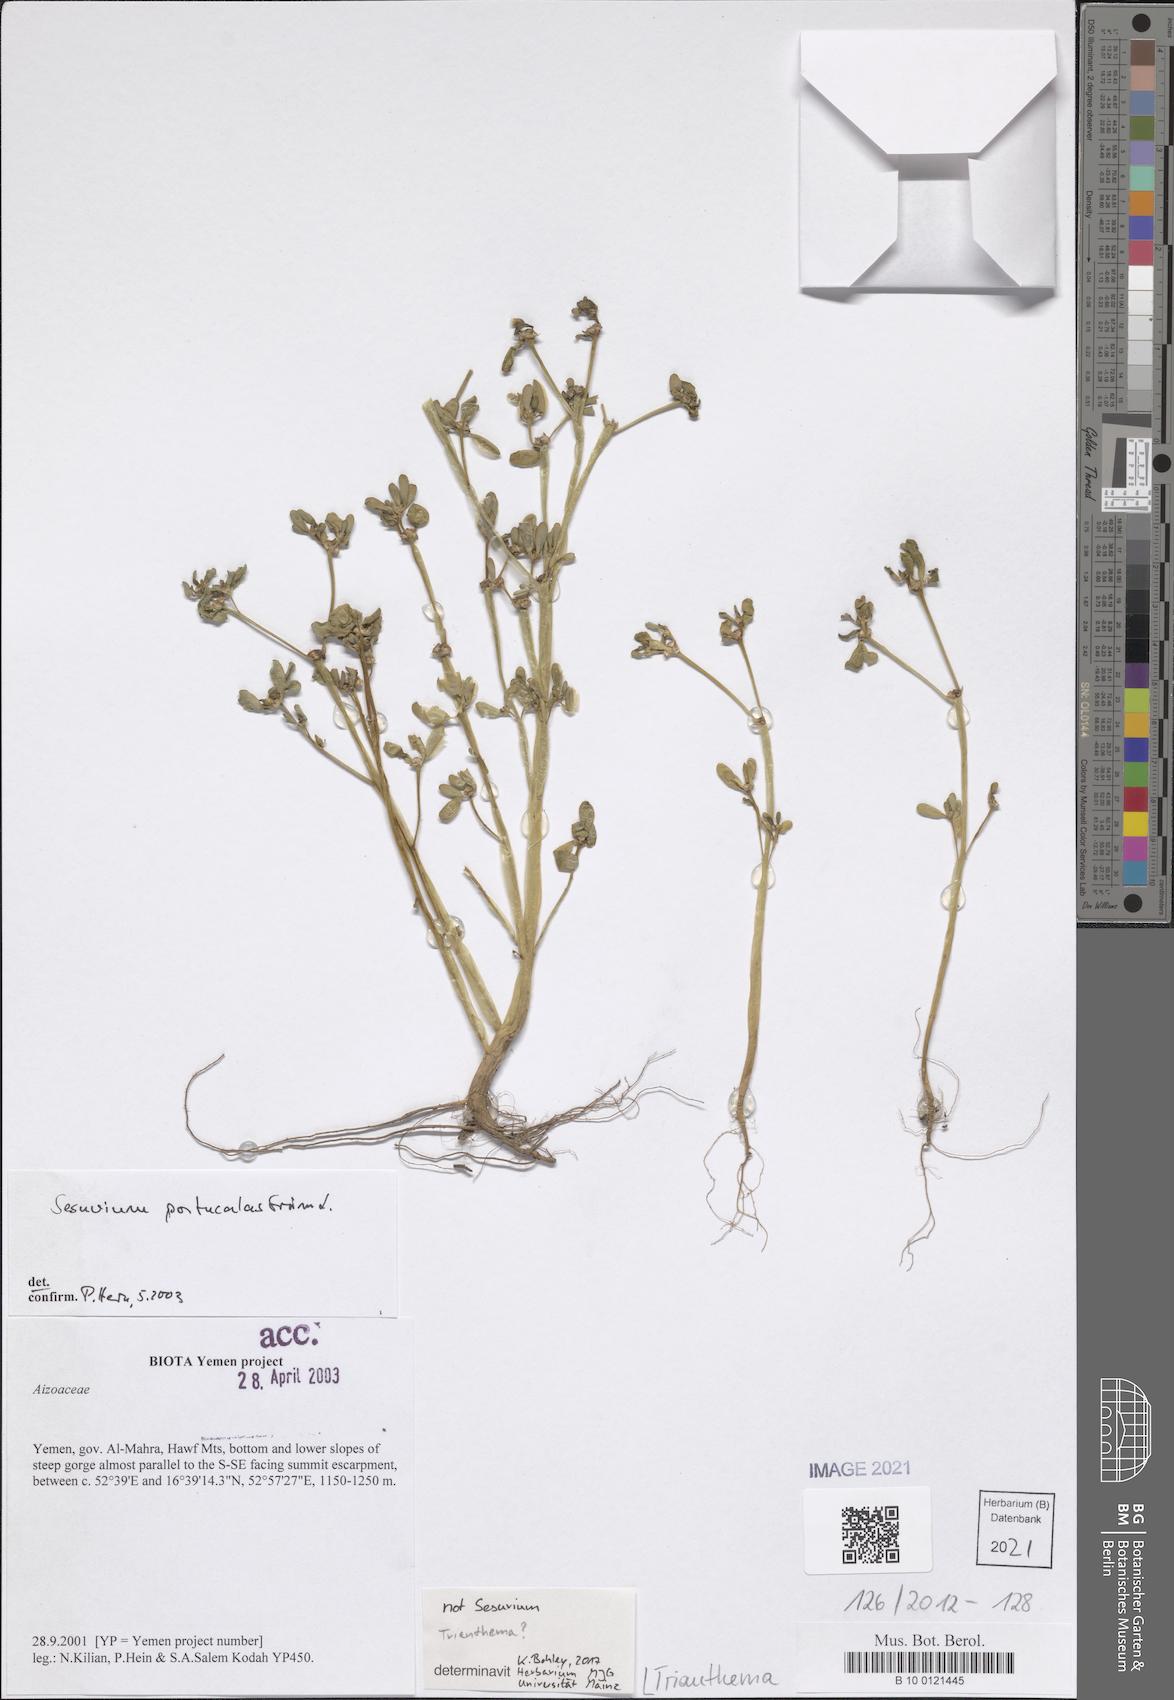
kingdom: Plantae
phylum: Tracheophyta
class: Magnoliopsida
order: Caryophyllales
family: Aizoaceae
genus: Trianthema
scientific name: Trianthema
